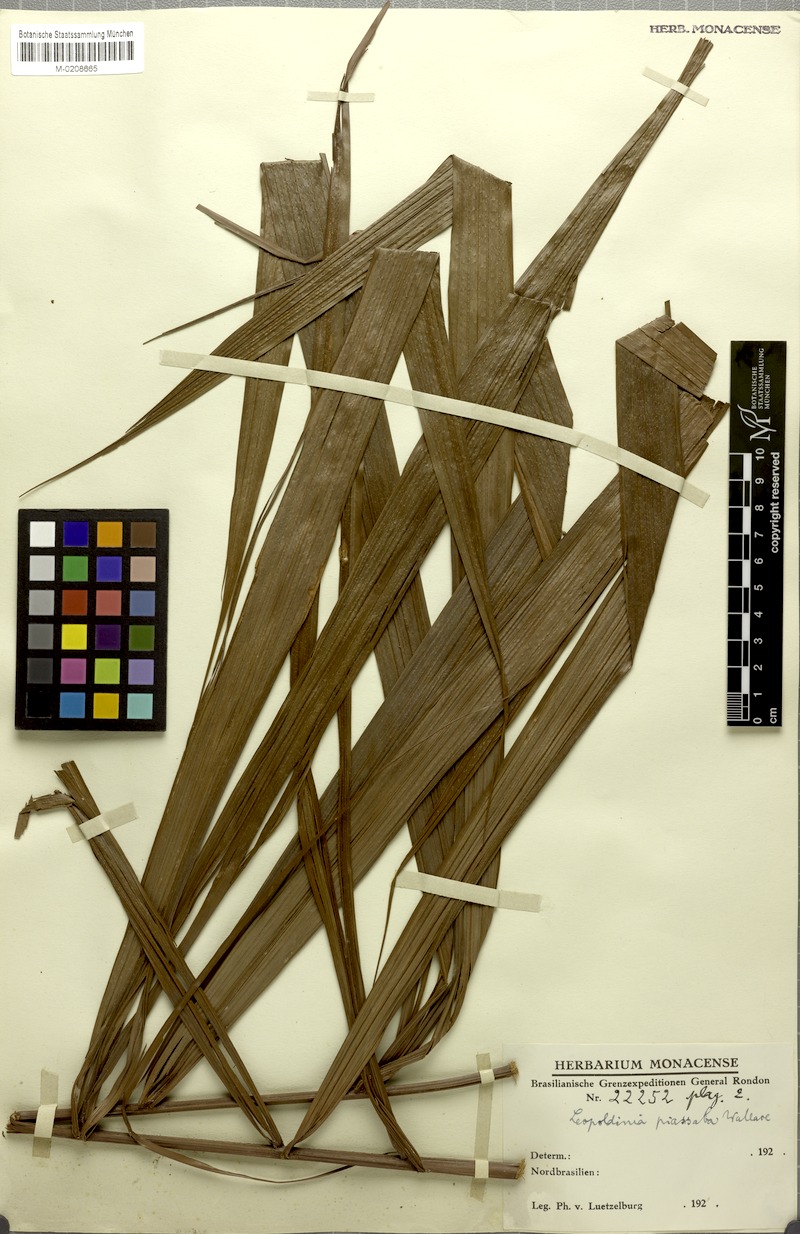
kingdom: Plantae
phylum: Tracheophyta
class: Liliopsida
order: Arecales
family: Arecaceae
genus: Leopoldinia
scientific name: Leopoldinia piassaba
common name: Piassaba
